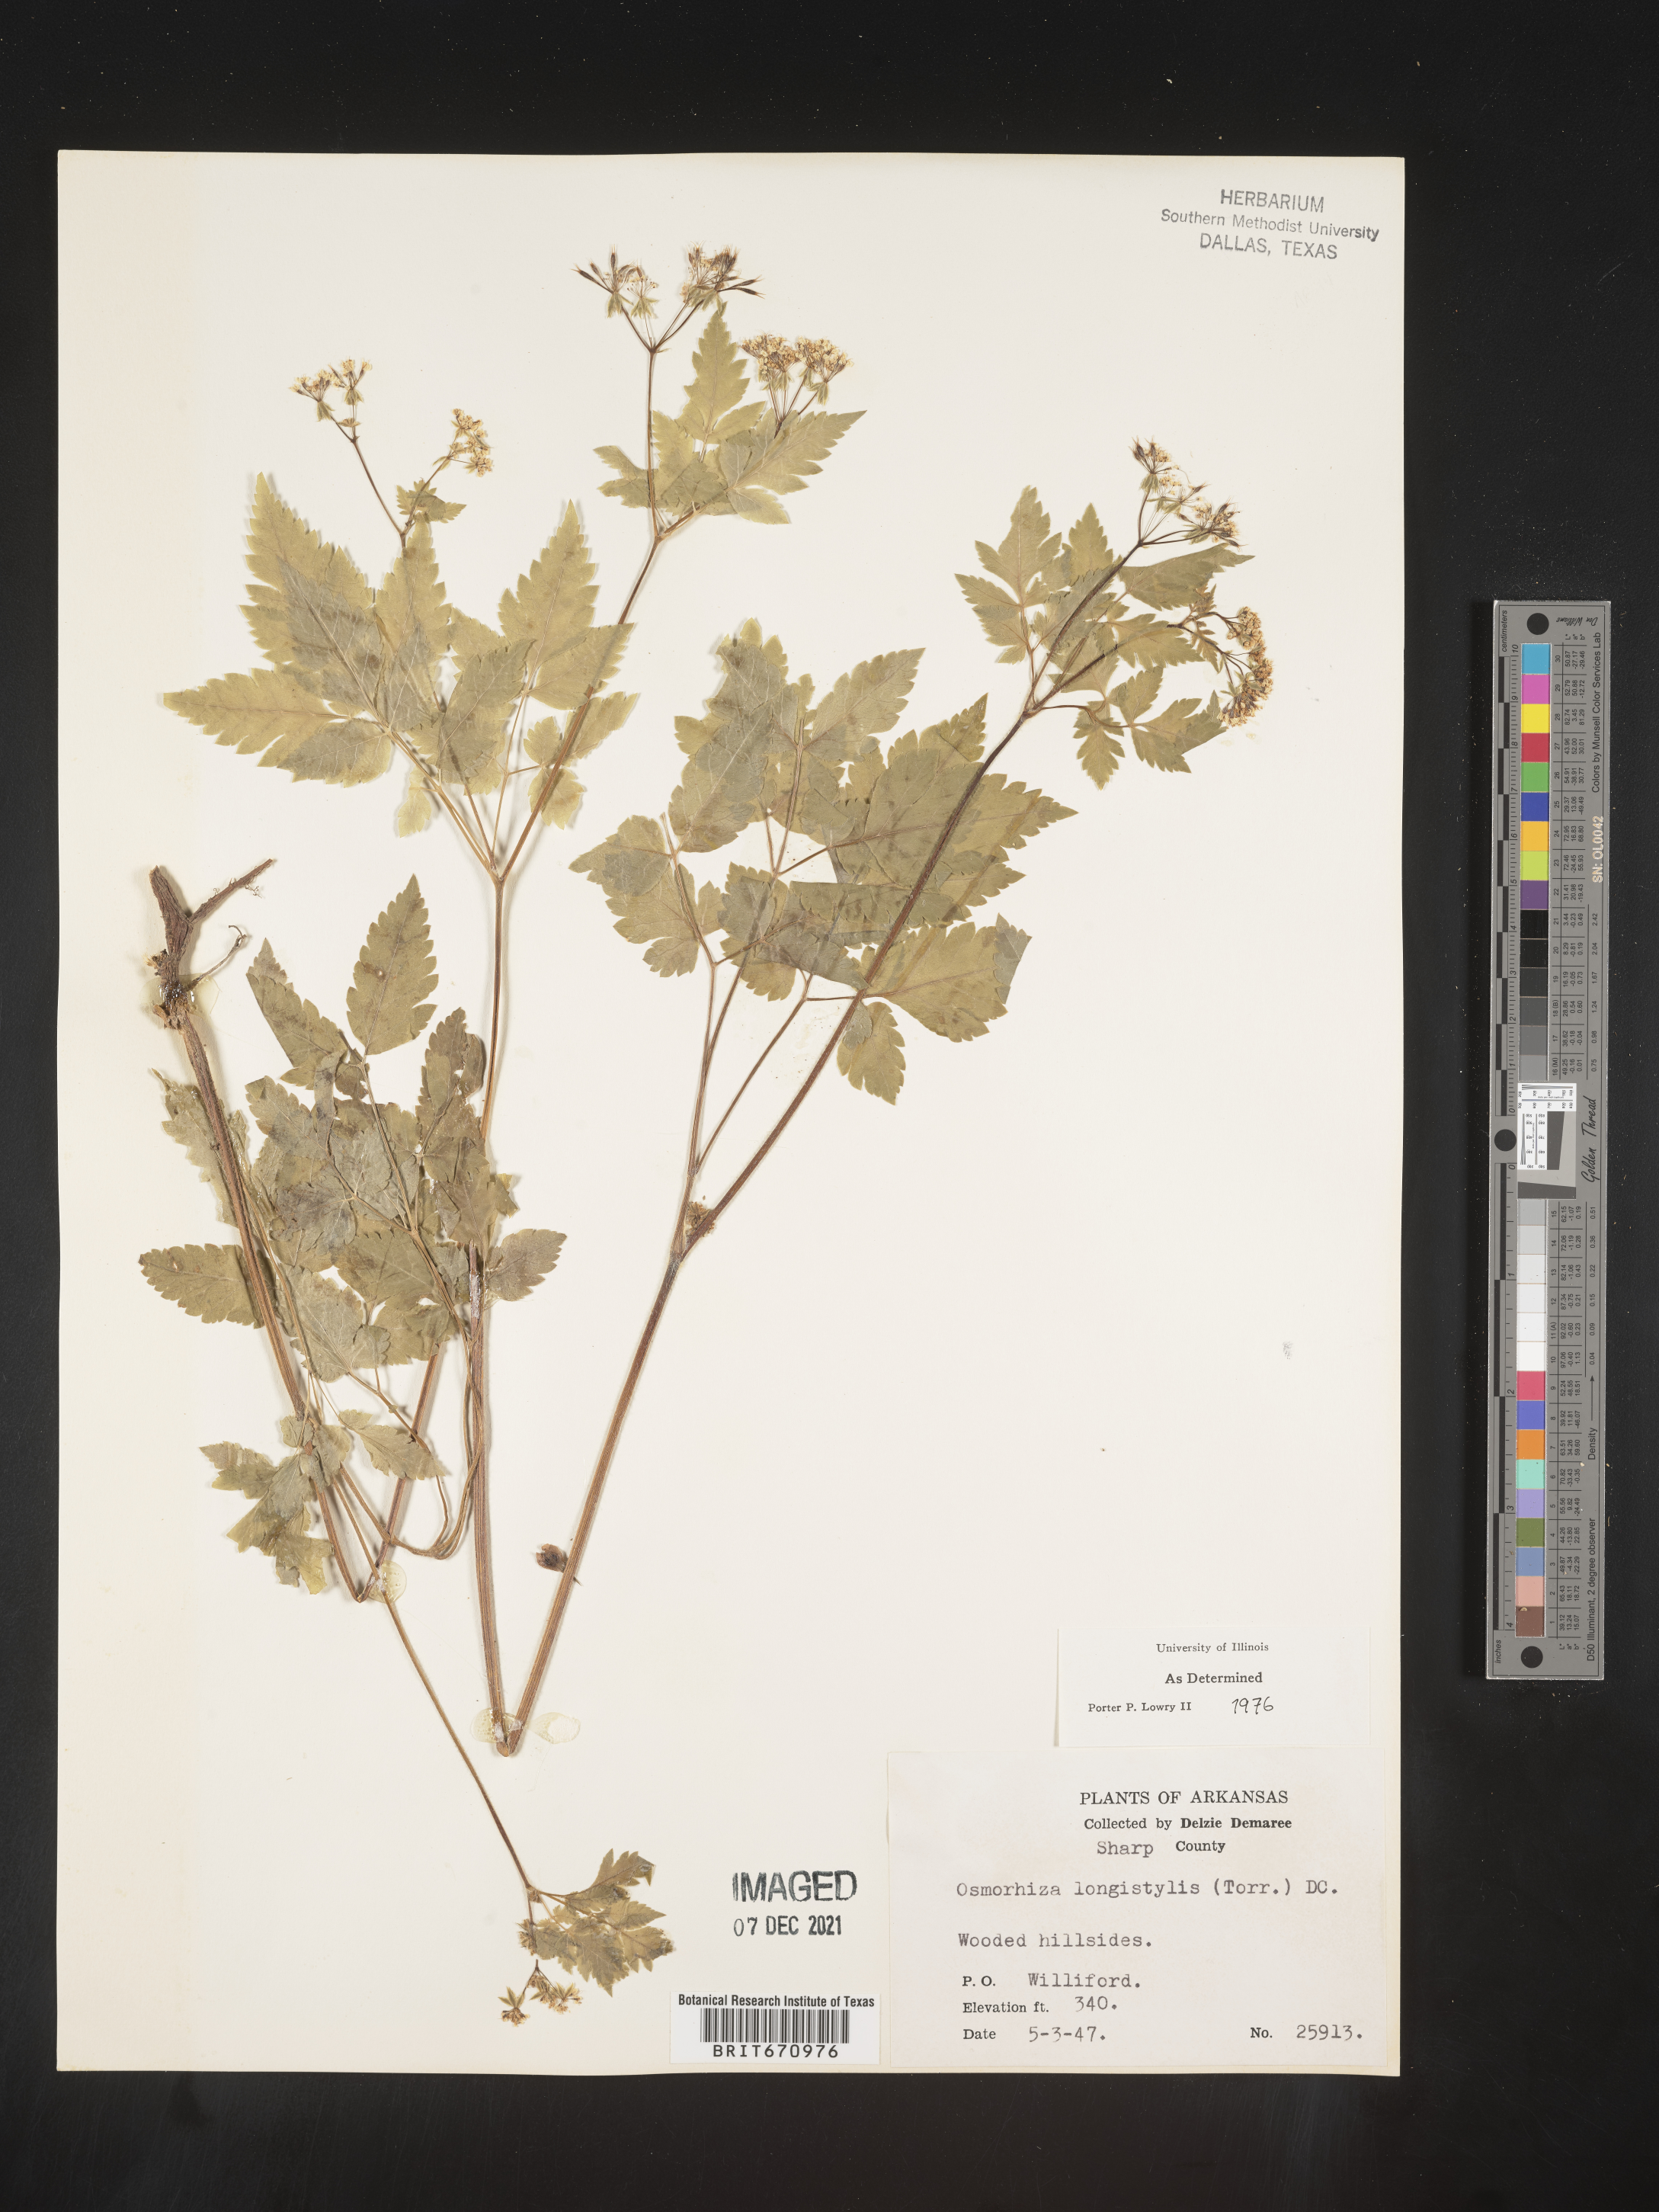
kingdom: Plantae
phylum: Tracheophyta
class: Magnoliopsida
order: Apiales
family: Apiaceae
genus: Osmorhiza
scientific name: Osmorhiza longistylis
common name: Smooth sweet cicely
